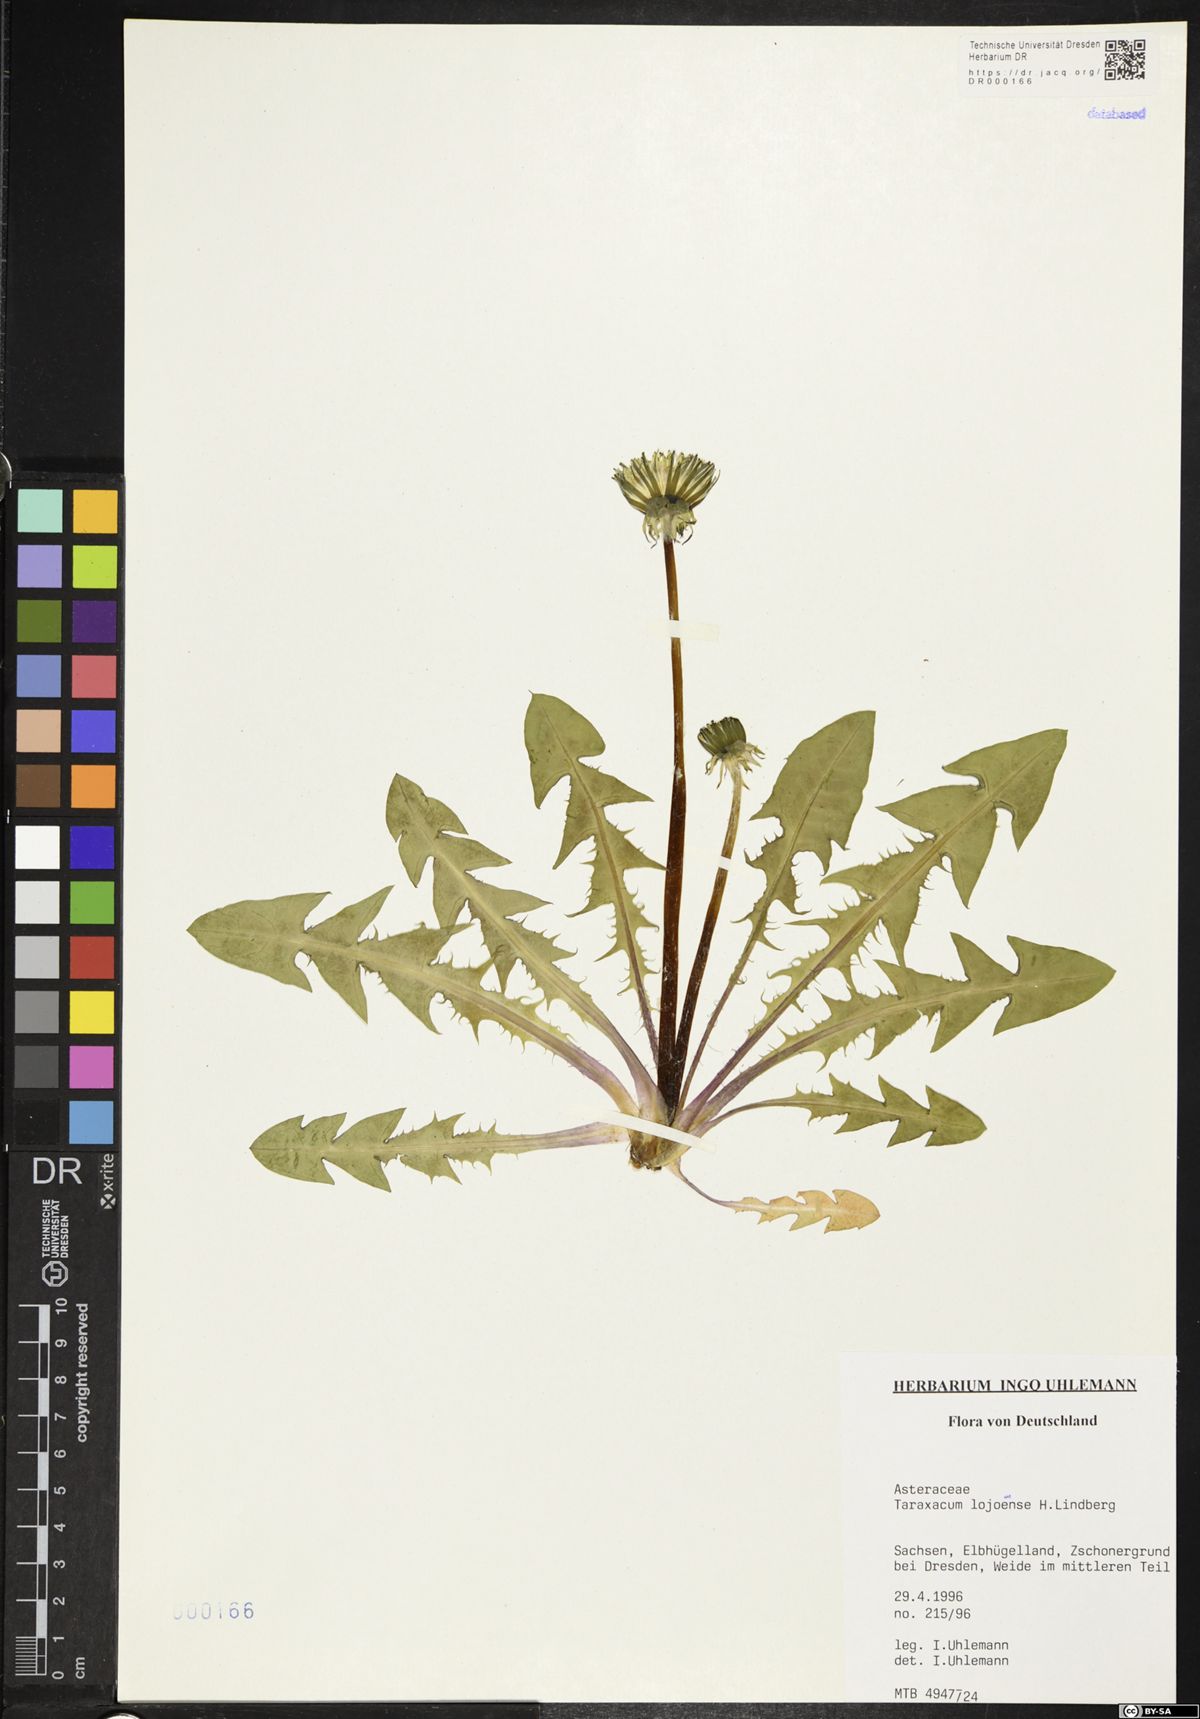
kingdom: Plantae
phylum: Tracheophyta
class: Magnoliopsida
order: Asterales
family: Asteraceae
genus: Taraxacum
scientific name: Taraxacum debrayi
